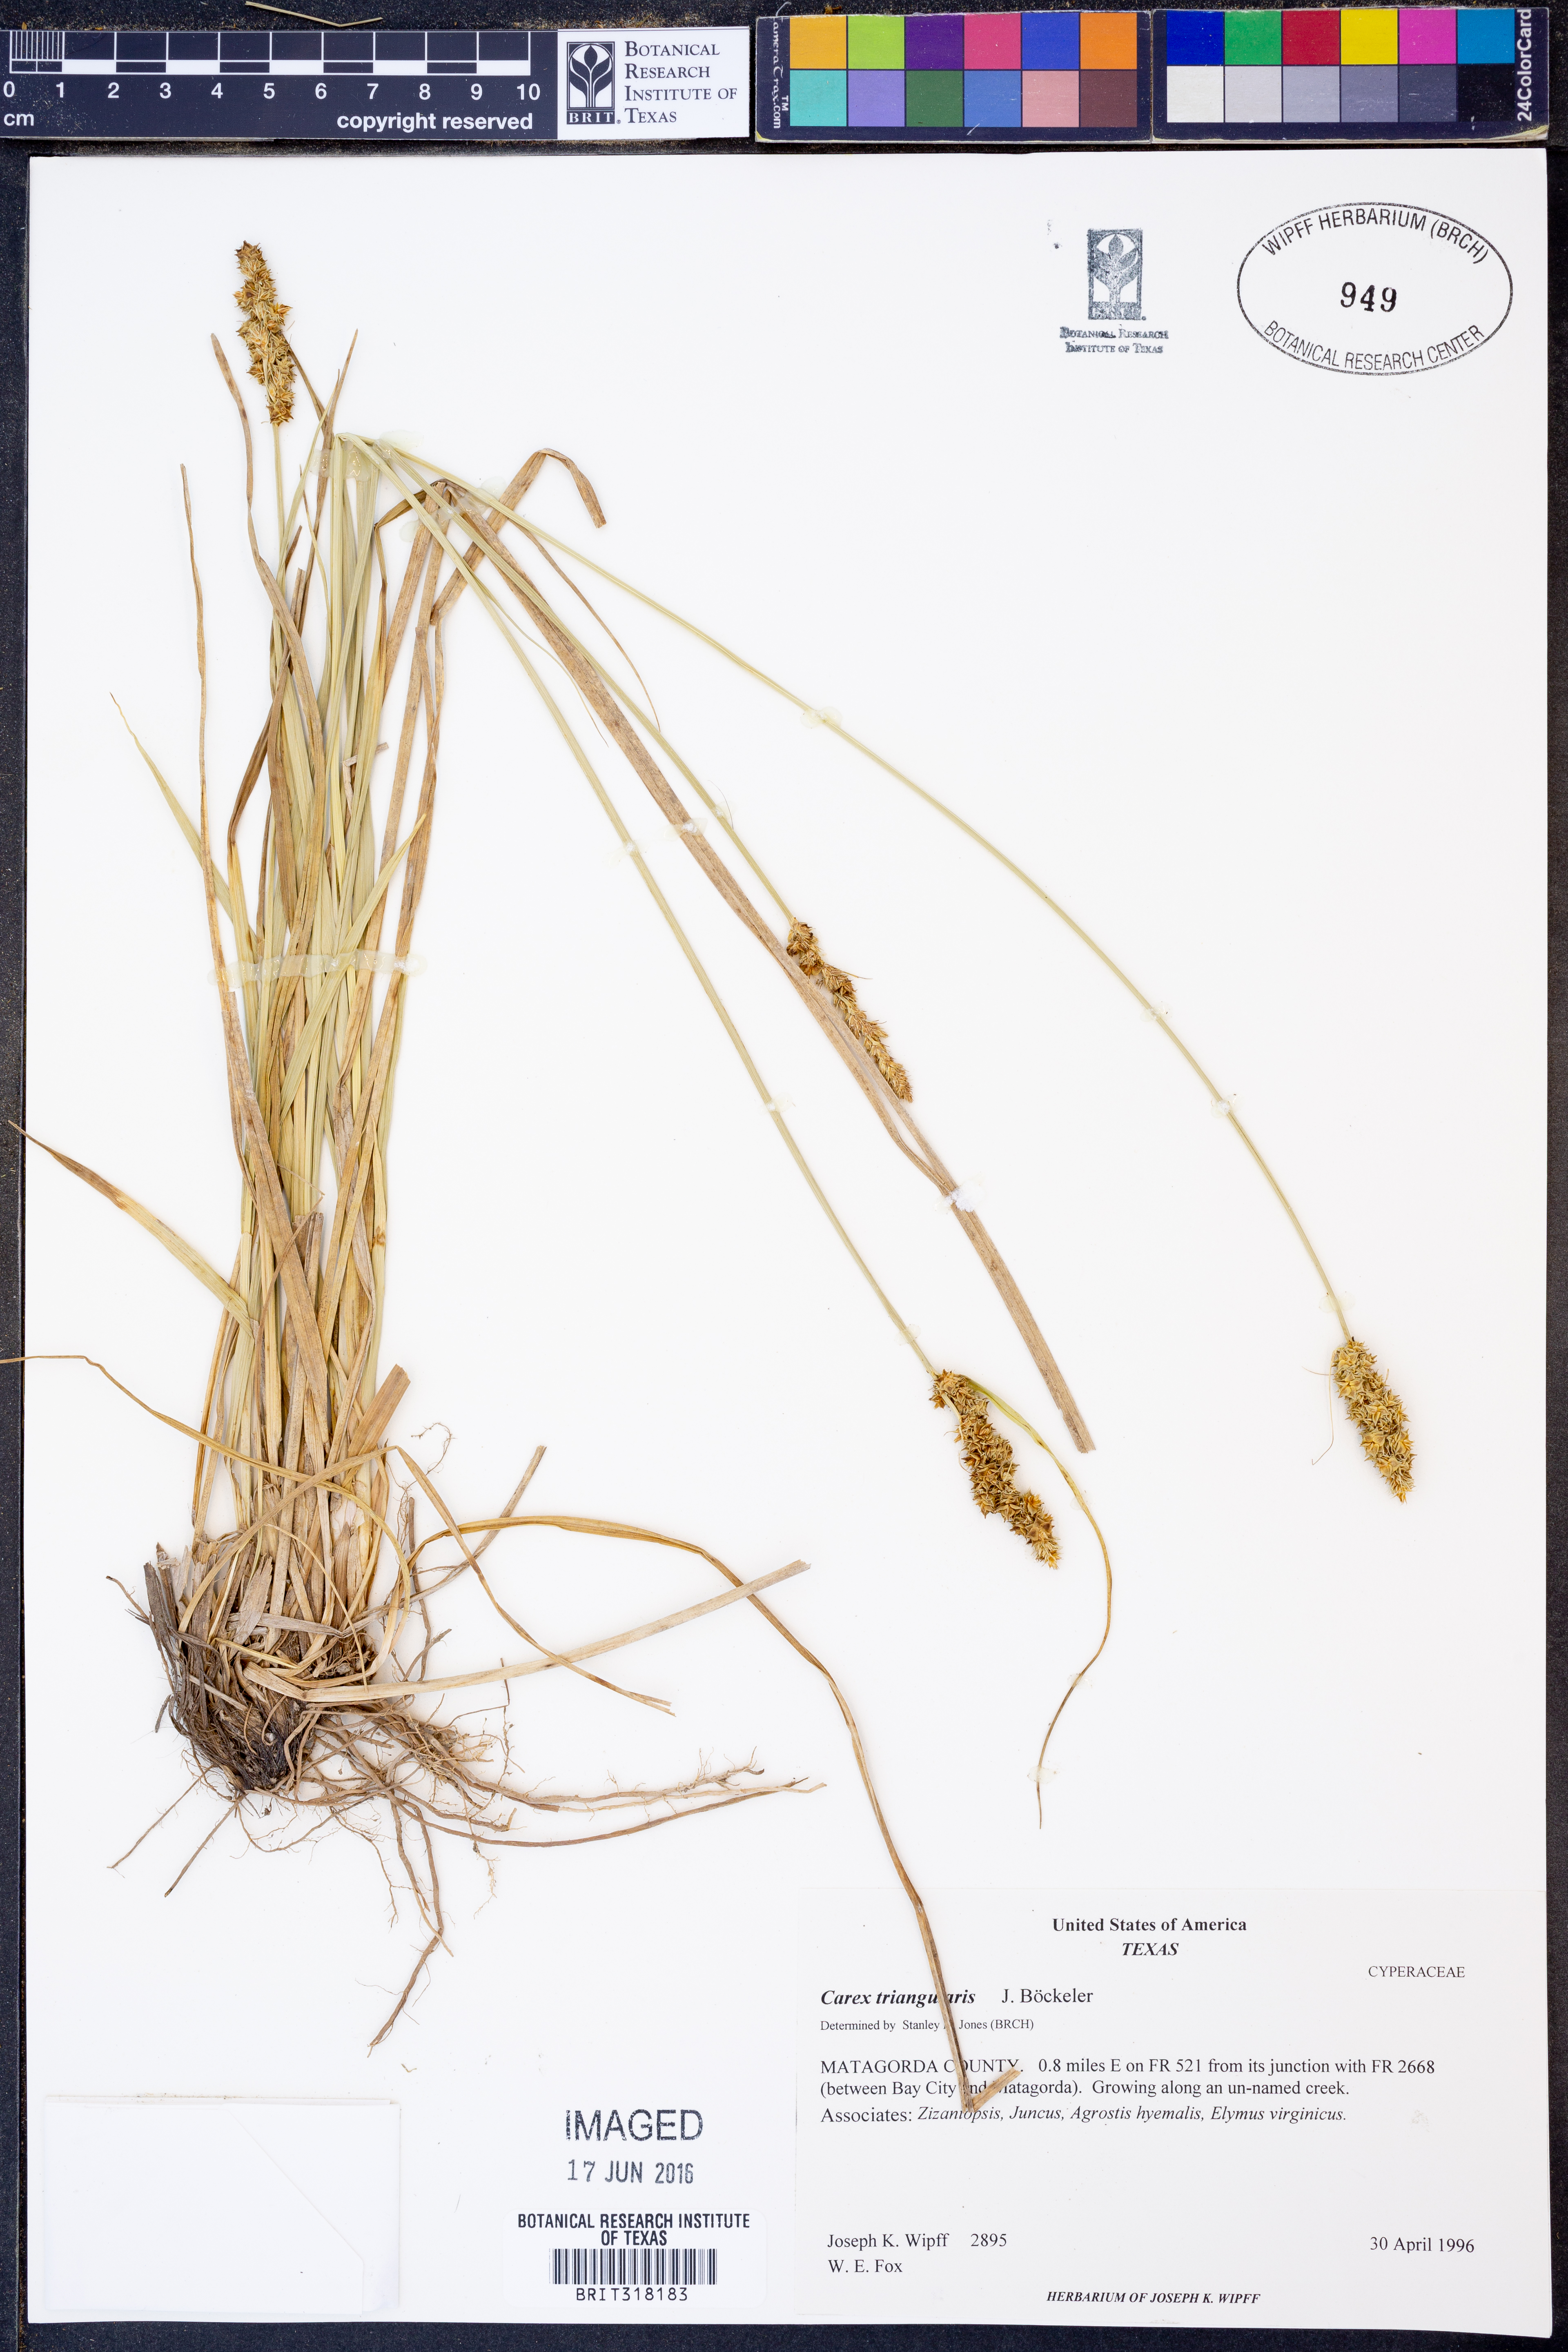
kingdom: Plantae
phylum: Tracheophyta
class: Liliopsida
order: Poales
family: Cyperaceae
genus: Carex
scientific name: Carex triangularis
